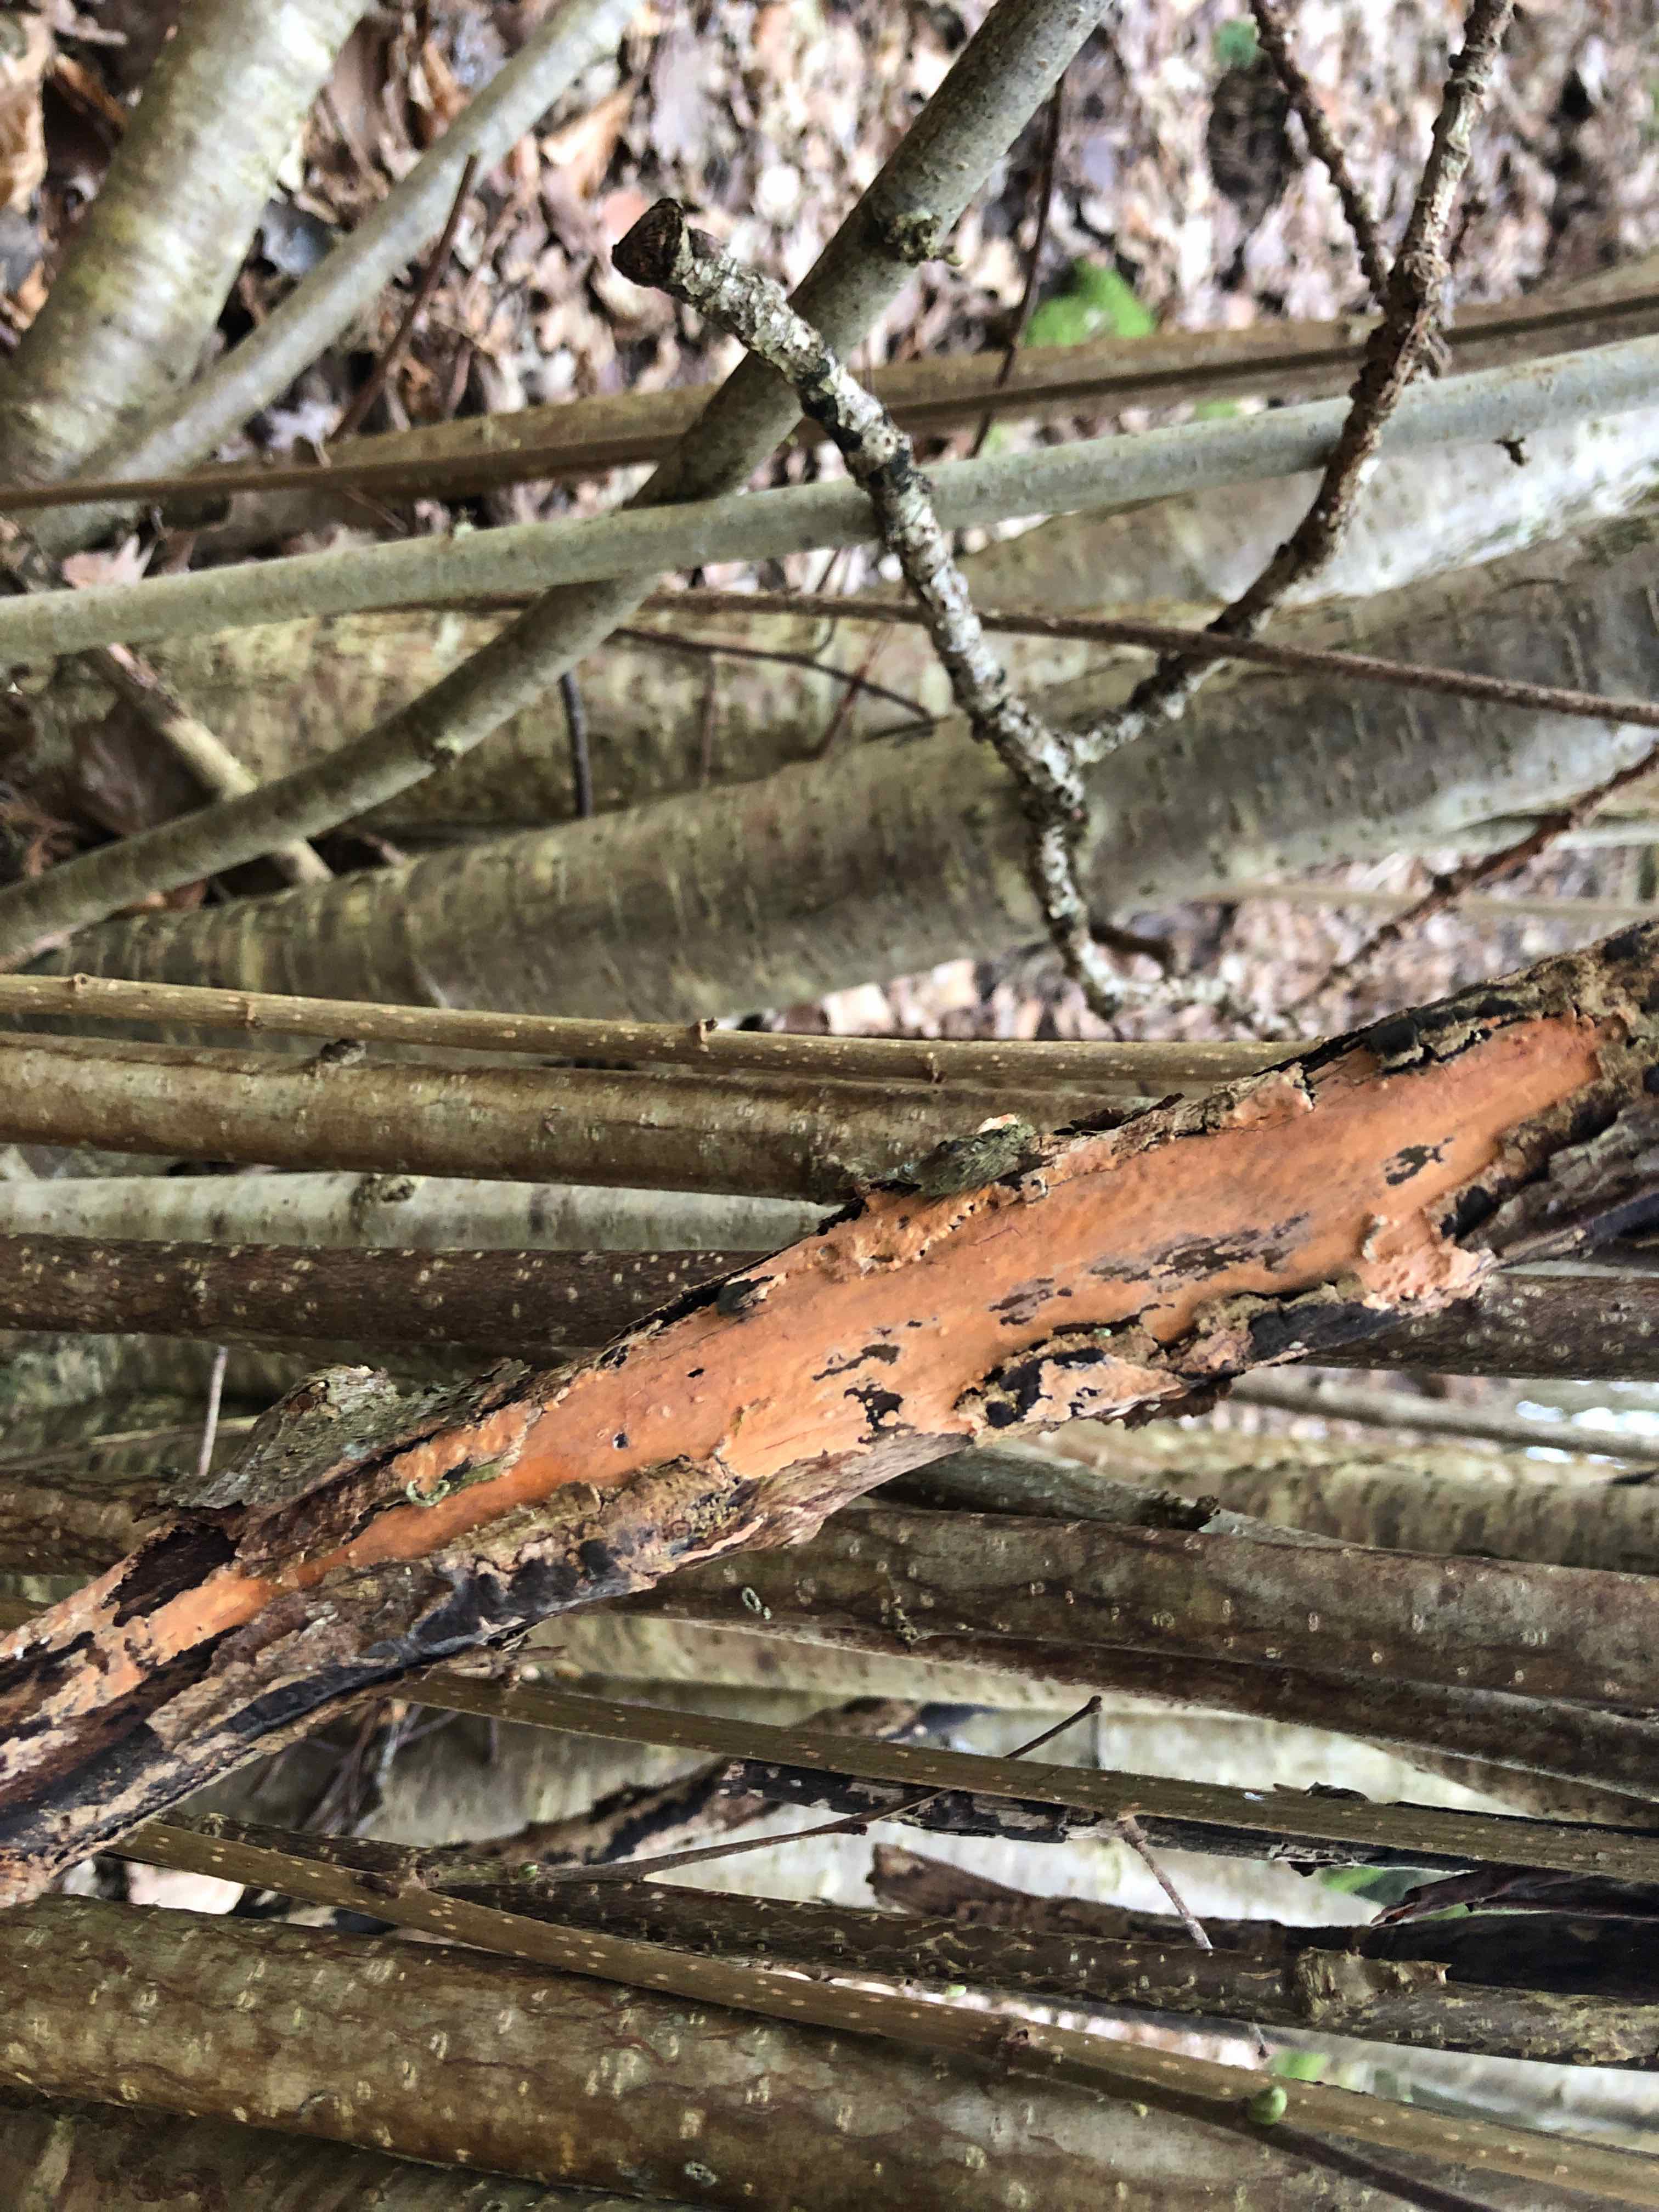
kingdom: Fungi
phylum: Basidiomycota
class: Agaricomycetes
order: Russulales
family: Peniophoraceae
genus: Peniophora
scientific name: Peniophora incarnata
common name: laksefarvet voksskind
